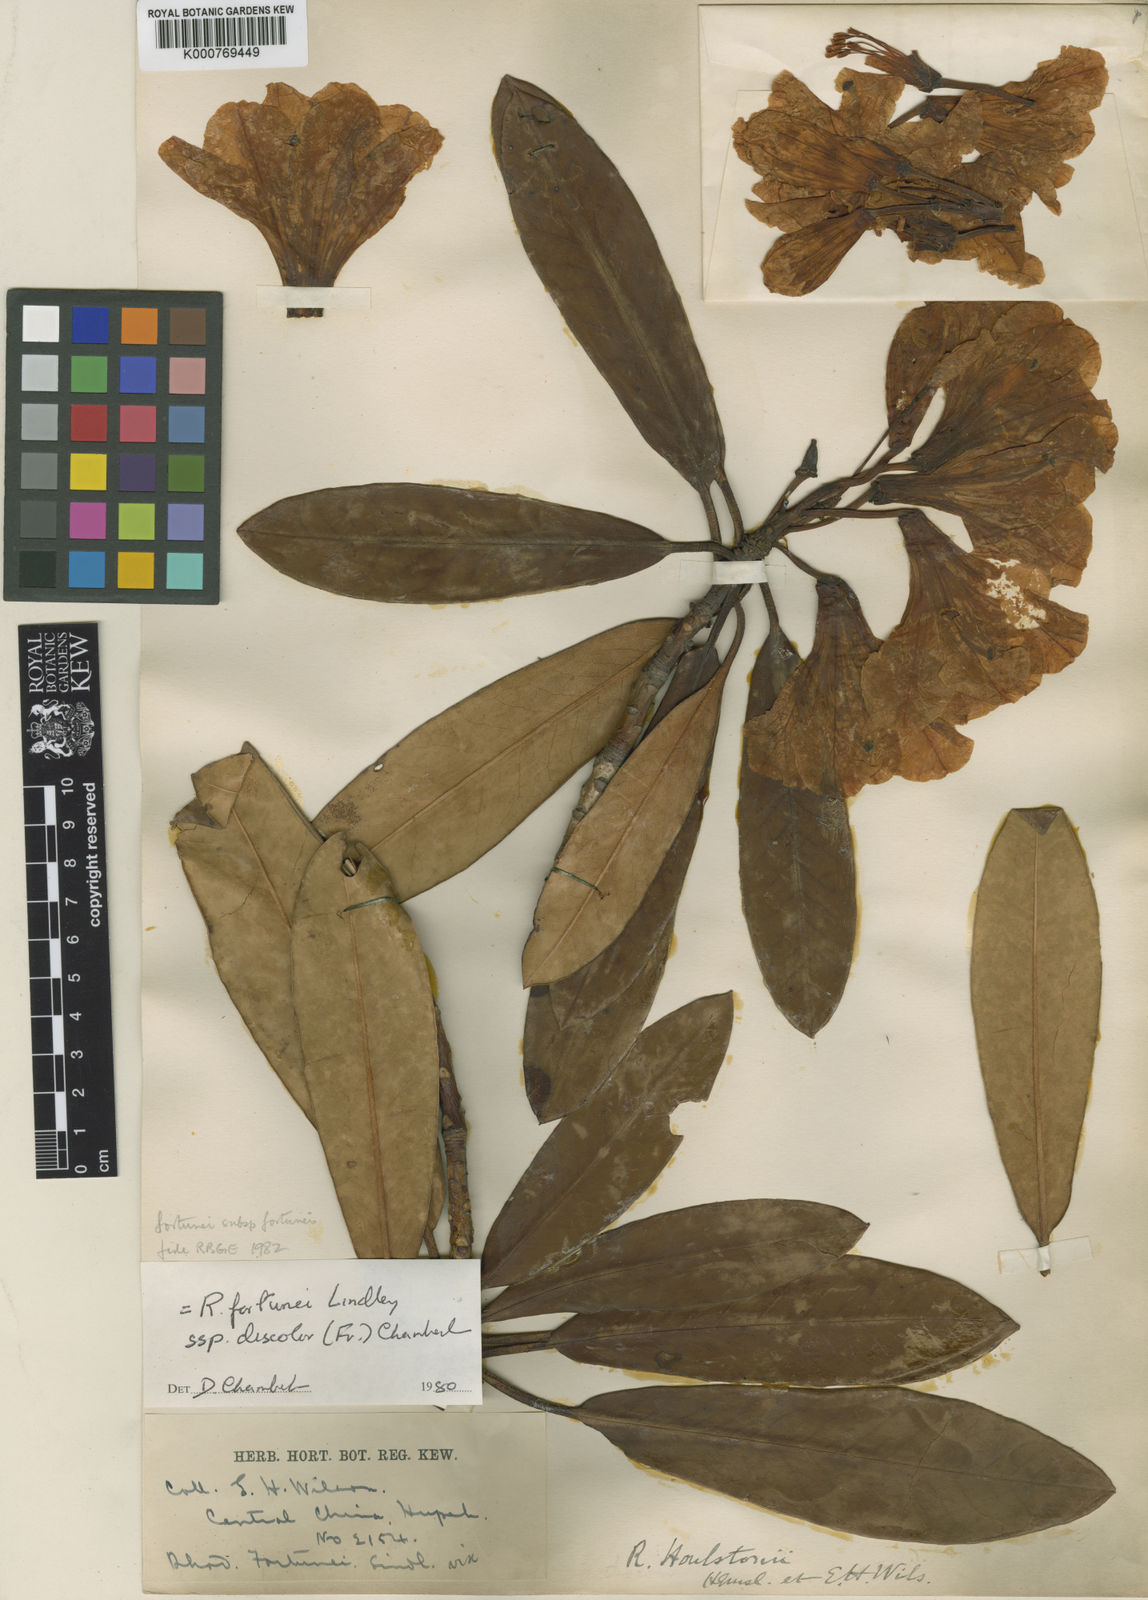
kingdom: Plantae
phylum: Tracheophyta
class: Magnoliopsida
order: Ericales
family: Ericaceae
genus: Rhododendron
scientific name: Rhododendron fortunei
